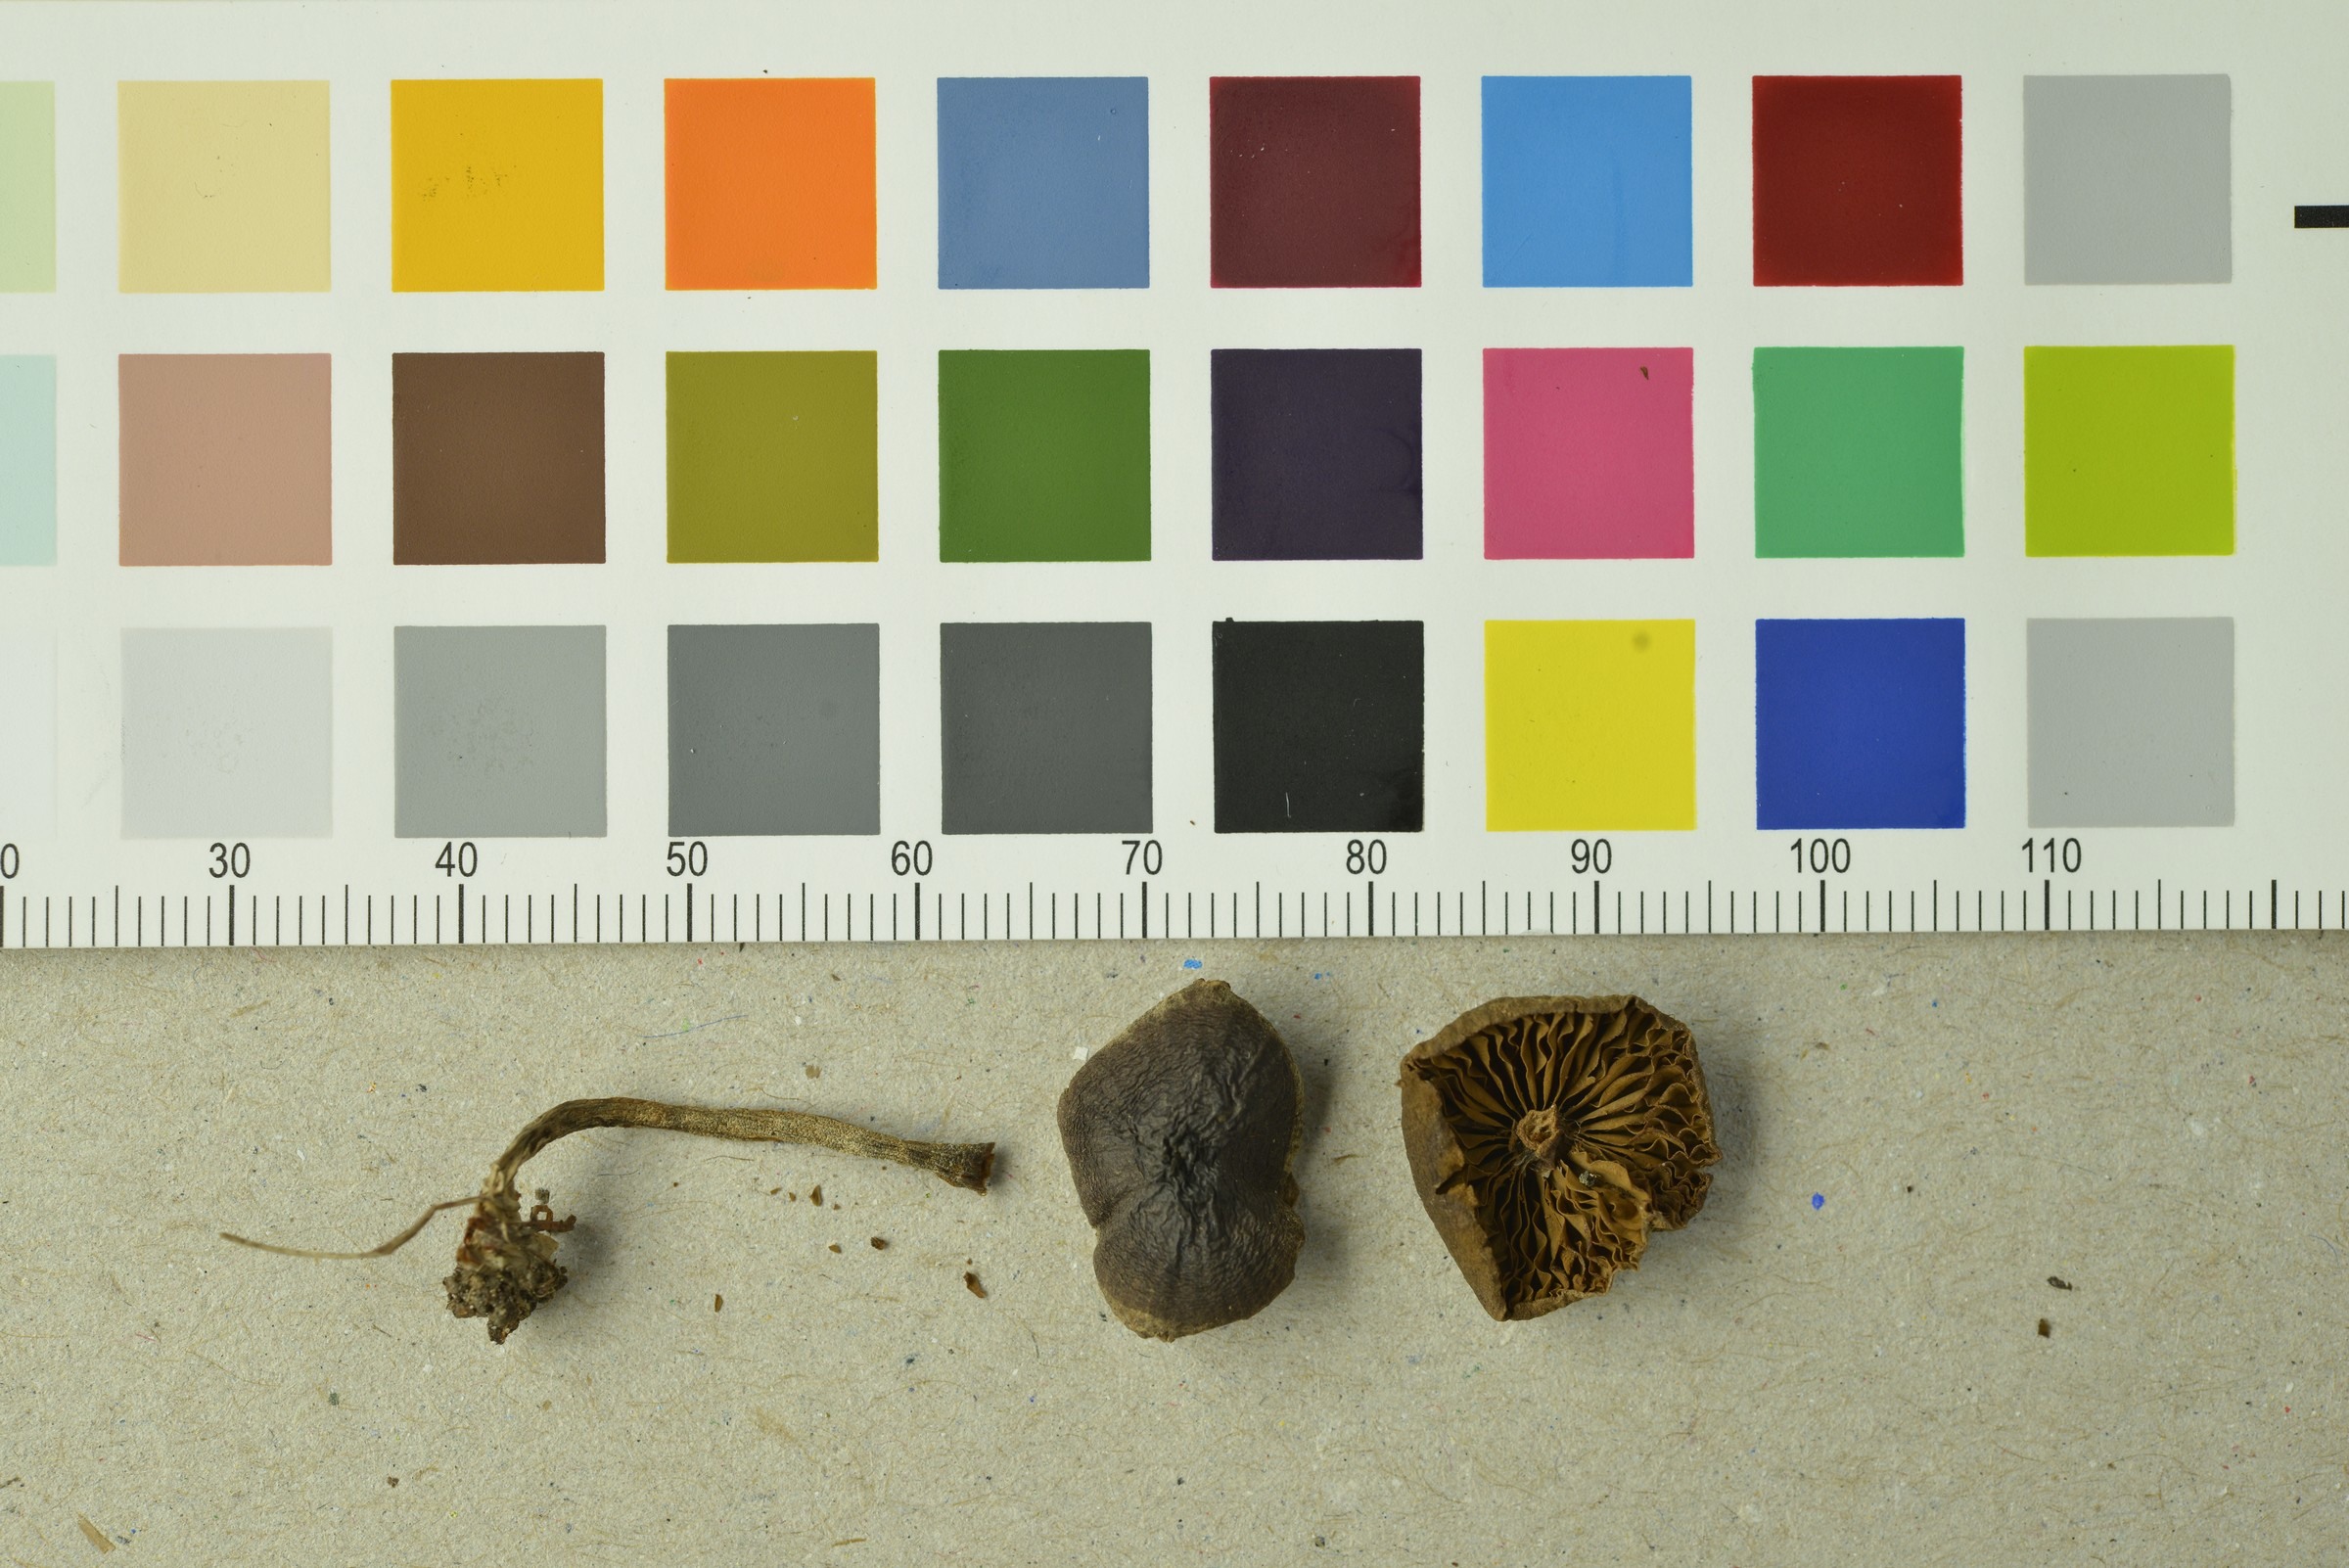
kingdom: Fungi
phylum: Basidiomycota
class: Agaricomycetes
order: Agaricales
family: Cortinariaceae
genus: Cortinarius
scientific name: Cortinarius praestigiosus
